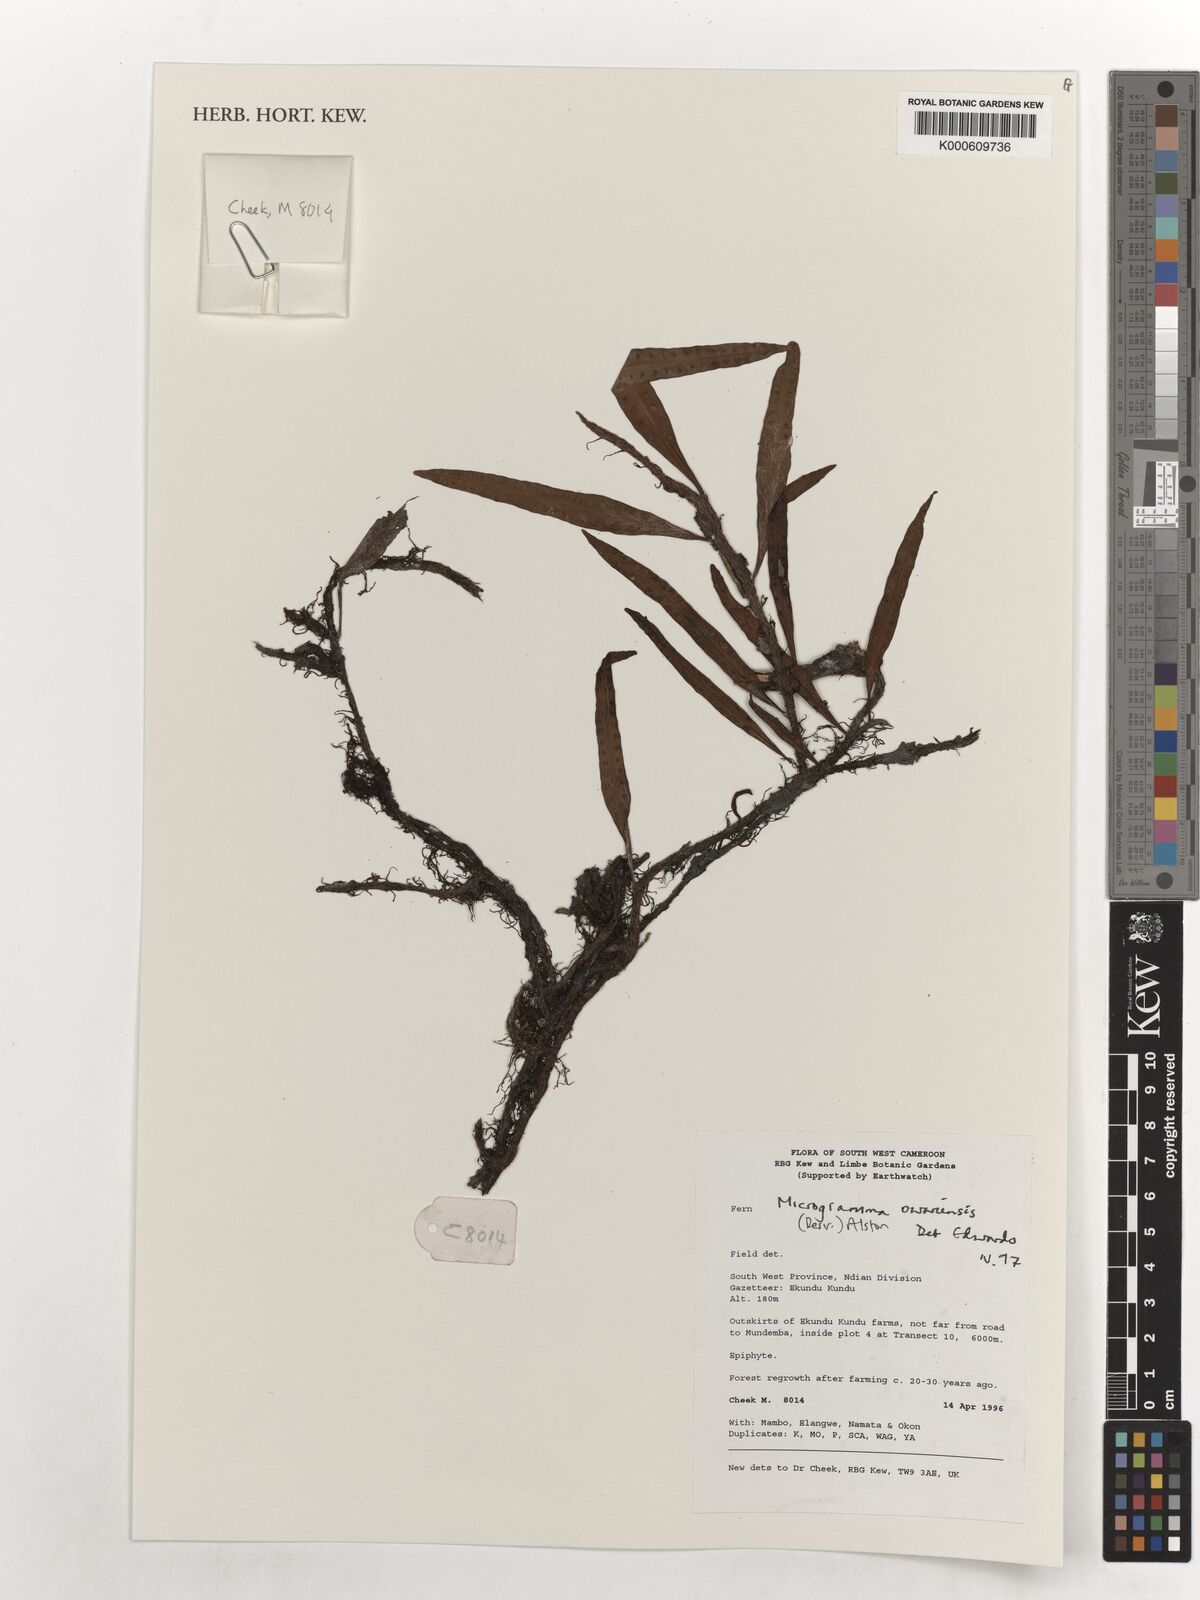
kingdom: Plantae
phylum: Tracheophyta
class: Polypodiopsida
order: Polypodiales
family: Polypodiaceae
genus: Microgramma
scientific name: Microgramma mauritiana
